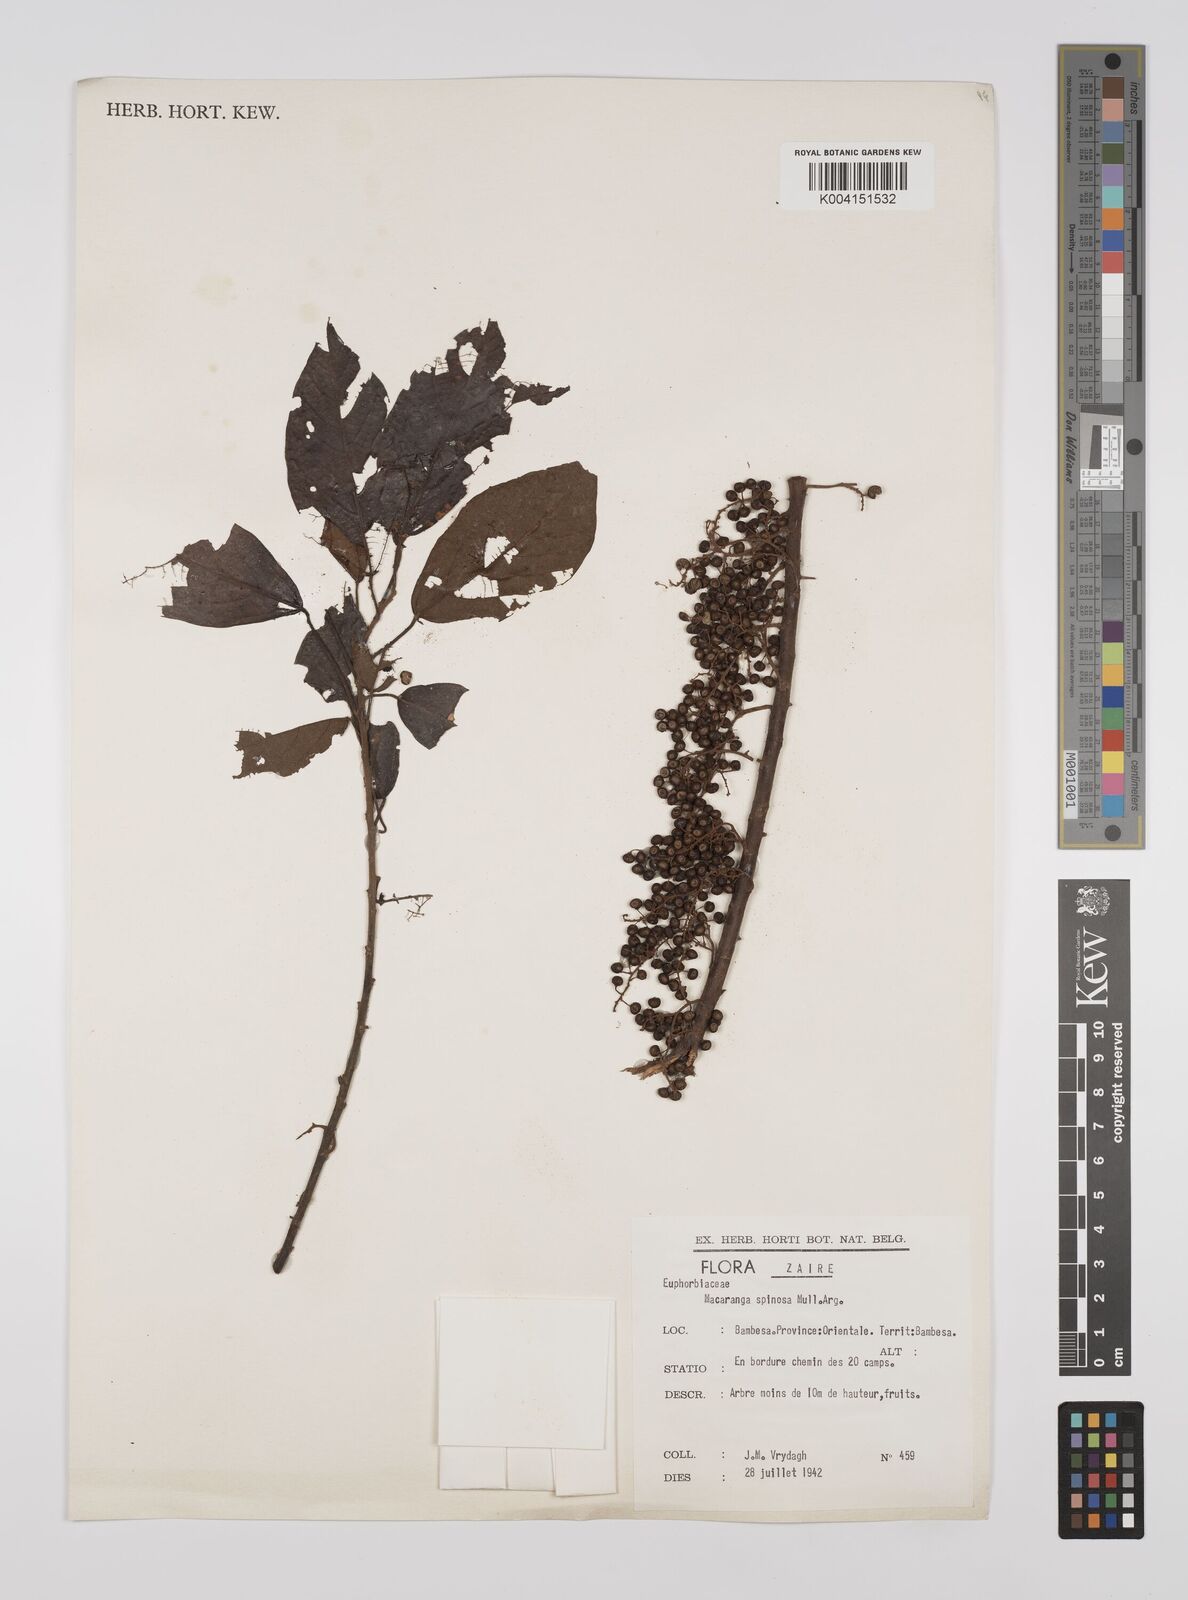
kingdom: Plantae
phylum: Tracheophyta
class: Magnoliopsida
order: Malpighiales
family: Euphorbiaceae
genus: Macaranga
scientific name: Macaranga spinosa
